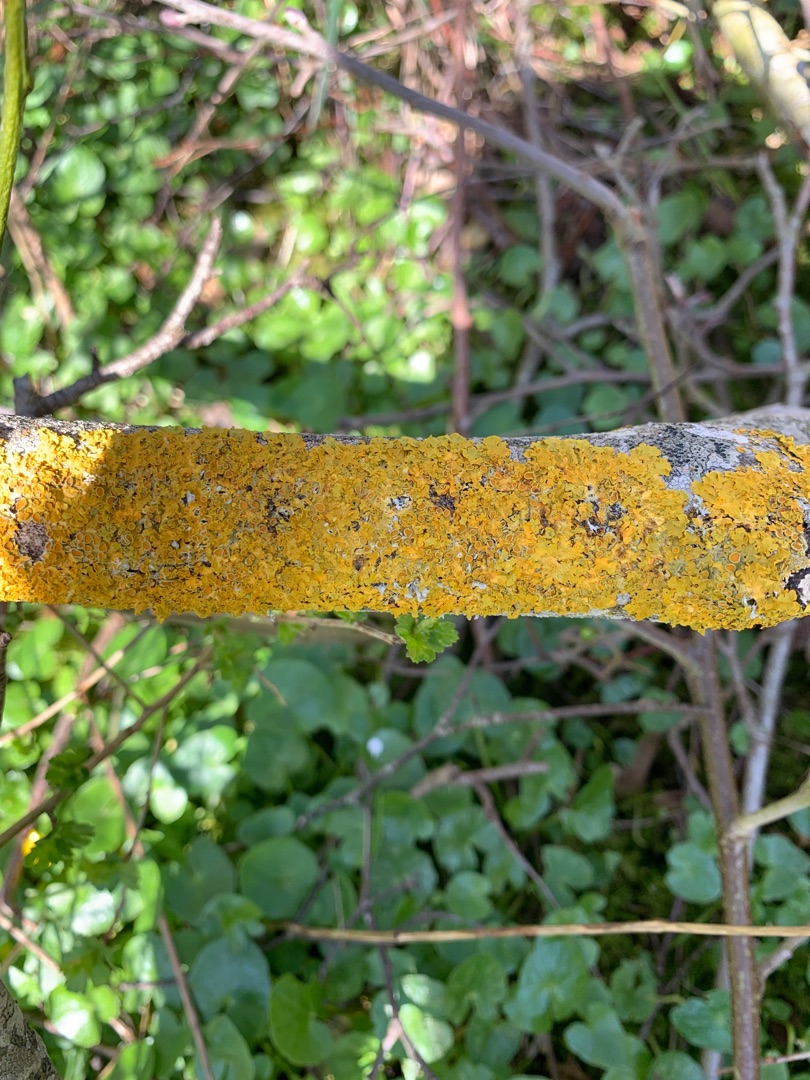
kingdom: Fungi
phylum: Ascomycota
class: Lecanoromycetes
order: Teloschistales
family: Teloschistaceae
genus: Xanthoria
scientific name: Xanthoria parietina
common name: Almindelig væggelav
